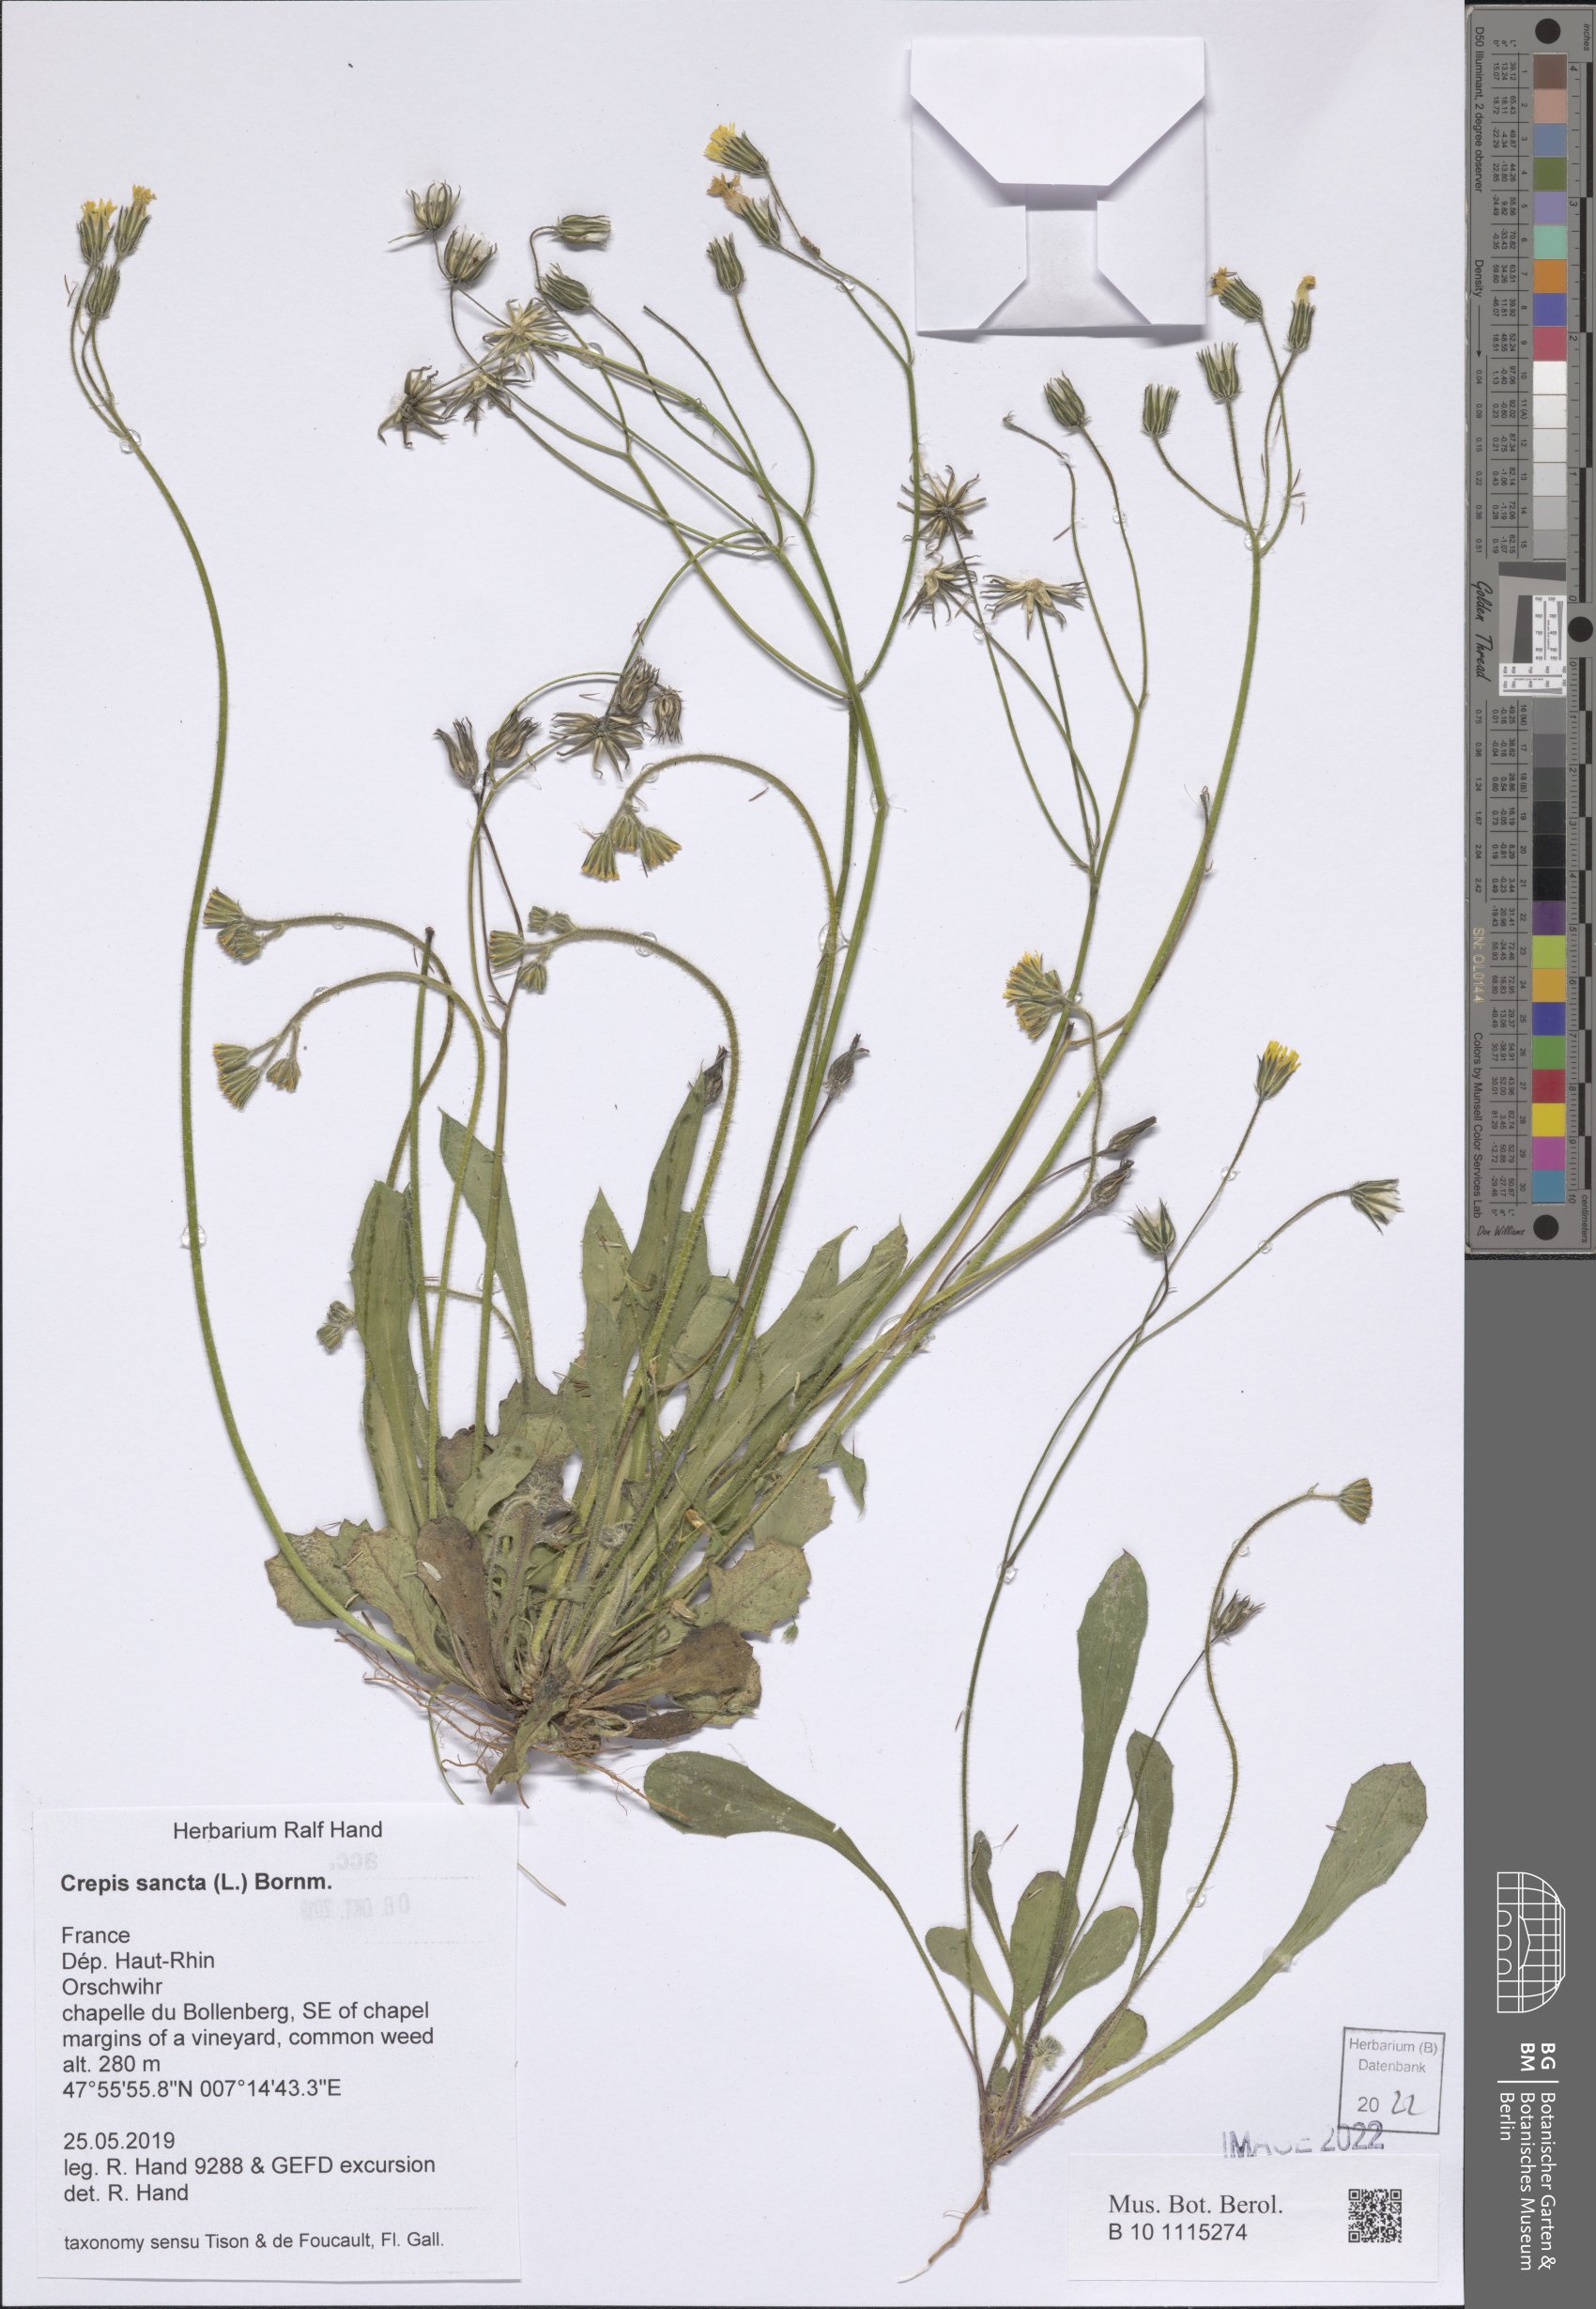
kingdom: Plantae
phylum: Tracheophyta
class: Magnoliopsida
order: Asterales
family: Asteraceae
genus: Crepis
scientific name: Crepis sancta
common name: Hawk's-beard
